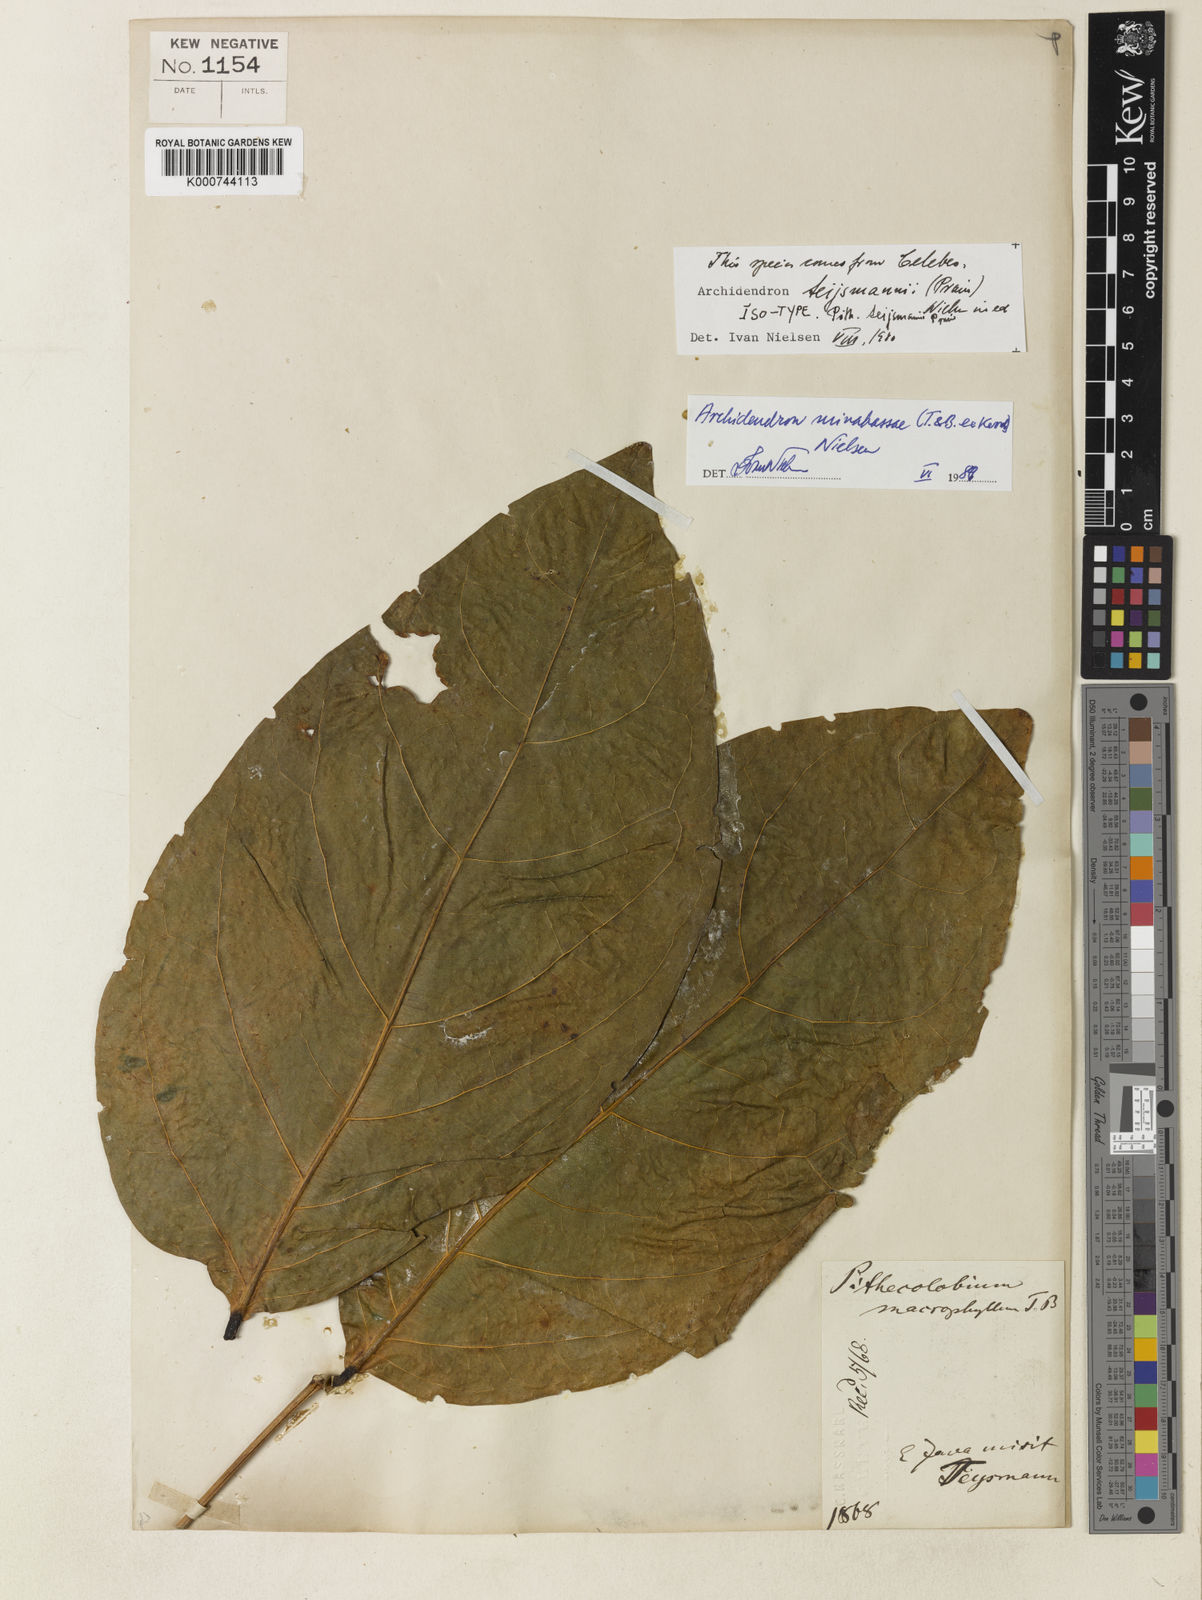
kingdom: Plantae
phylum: Tracheophyta
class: Magnoliopsida
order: Fabales
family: Fabaceae
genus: Archidendron
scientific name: Archidendron minahassae
